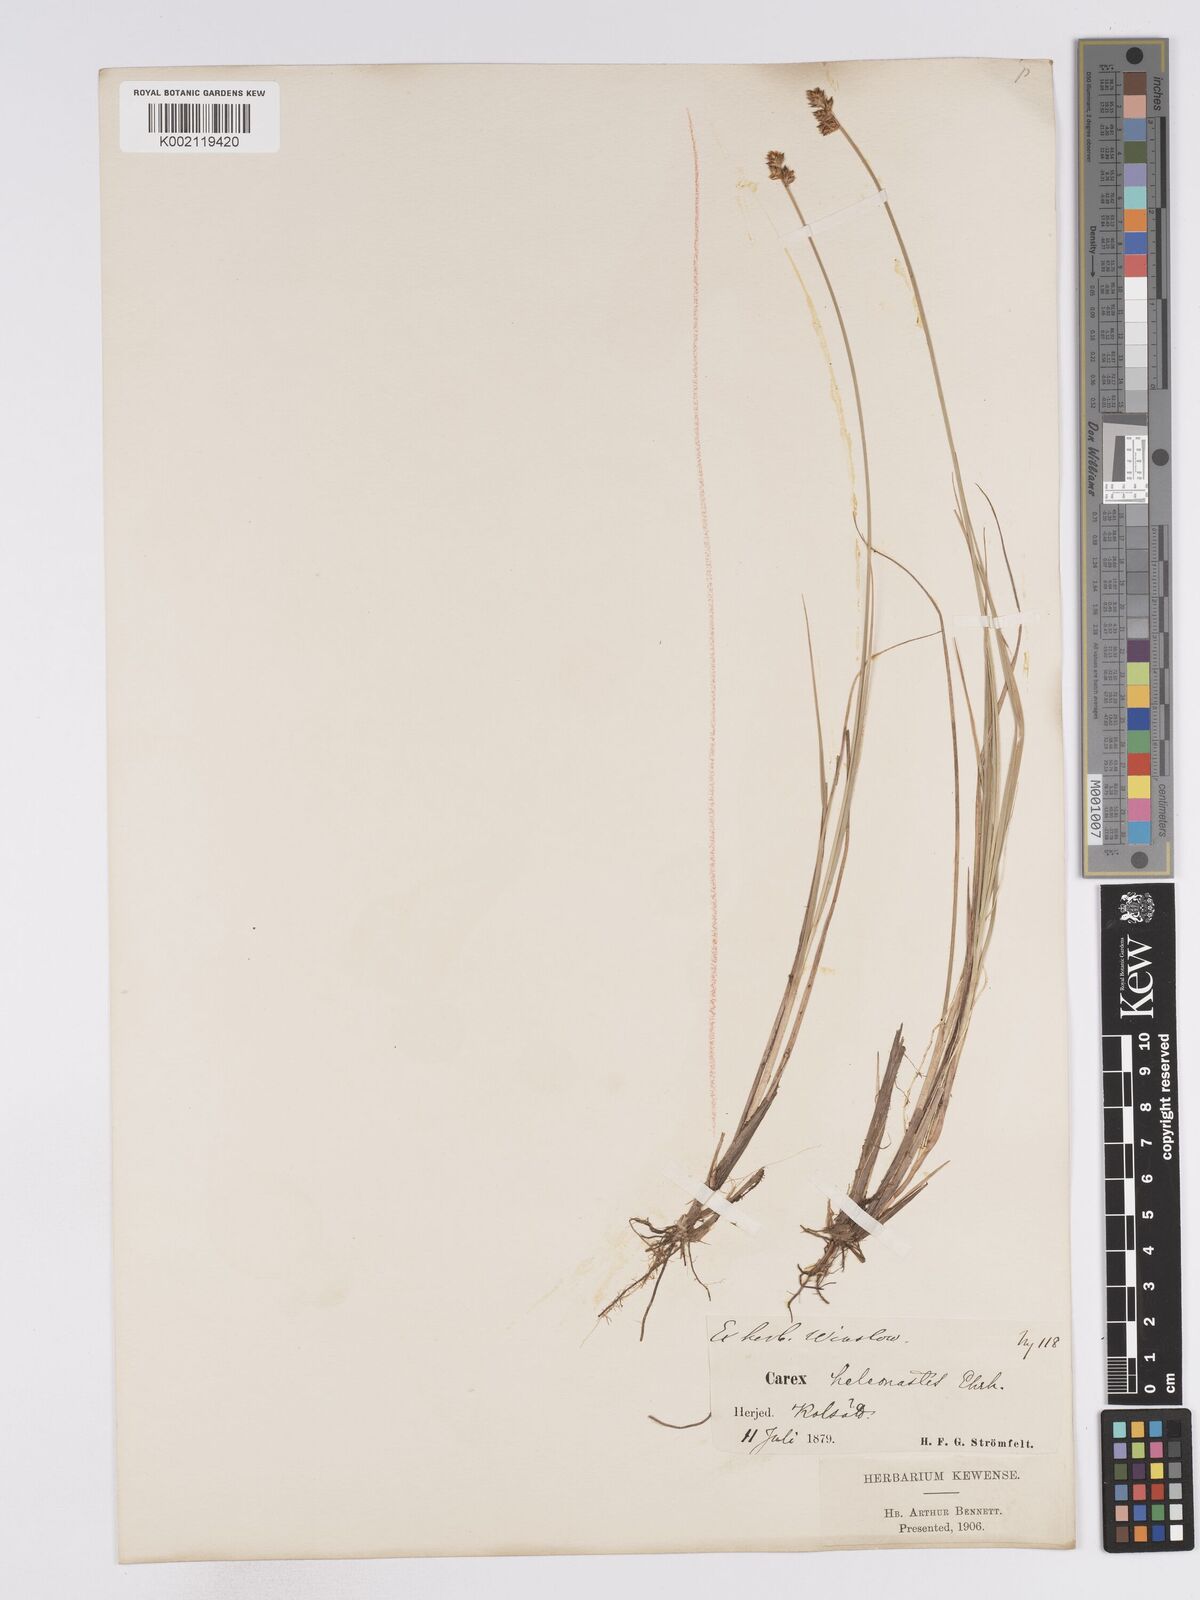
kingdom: Plantae
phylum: Tracheophyta
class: Liliopsida
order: Poales
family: Cyperaceae
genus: Carex
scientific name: Carex heleonastes
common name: Hudson bay sedge
